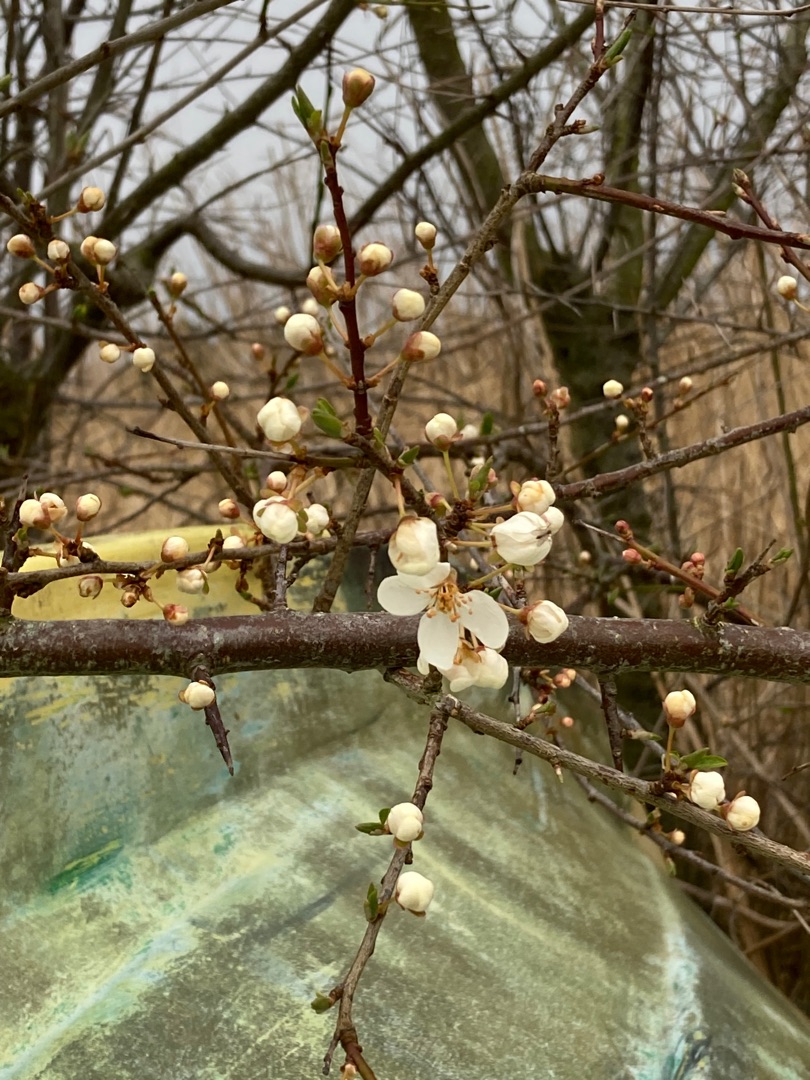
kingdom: Plantae
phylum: Tracheophyta
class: Magnoliopsida
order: Rosales
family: Rosaceae
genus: Prunus
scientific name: Prunus cerasifera
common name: Mirabel
